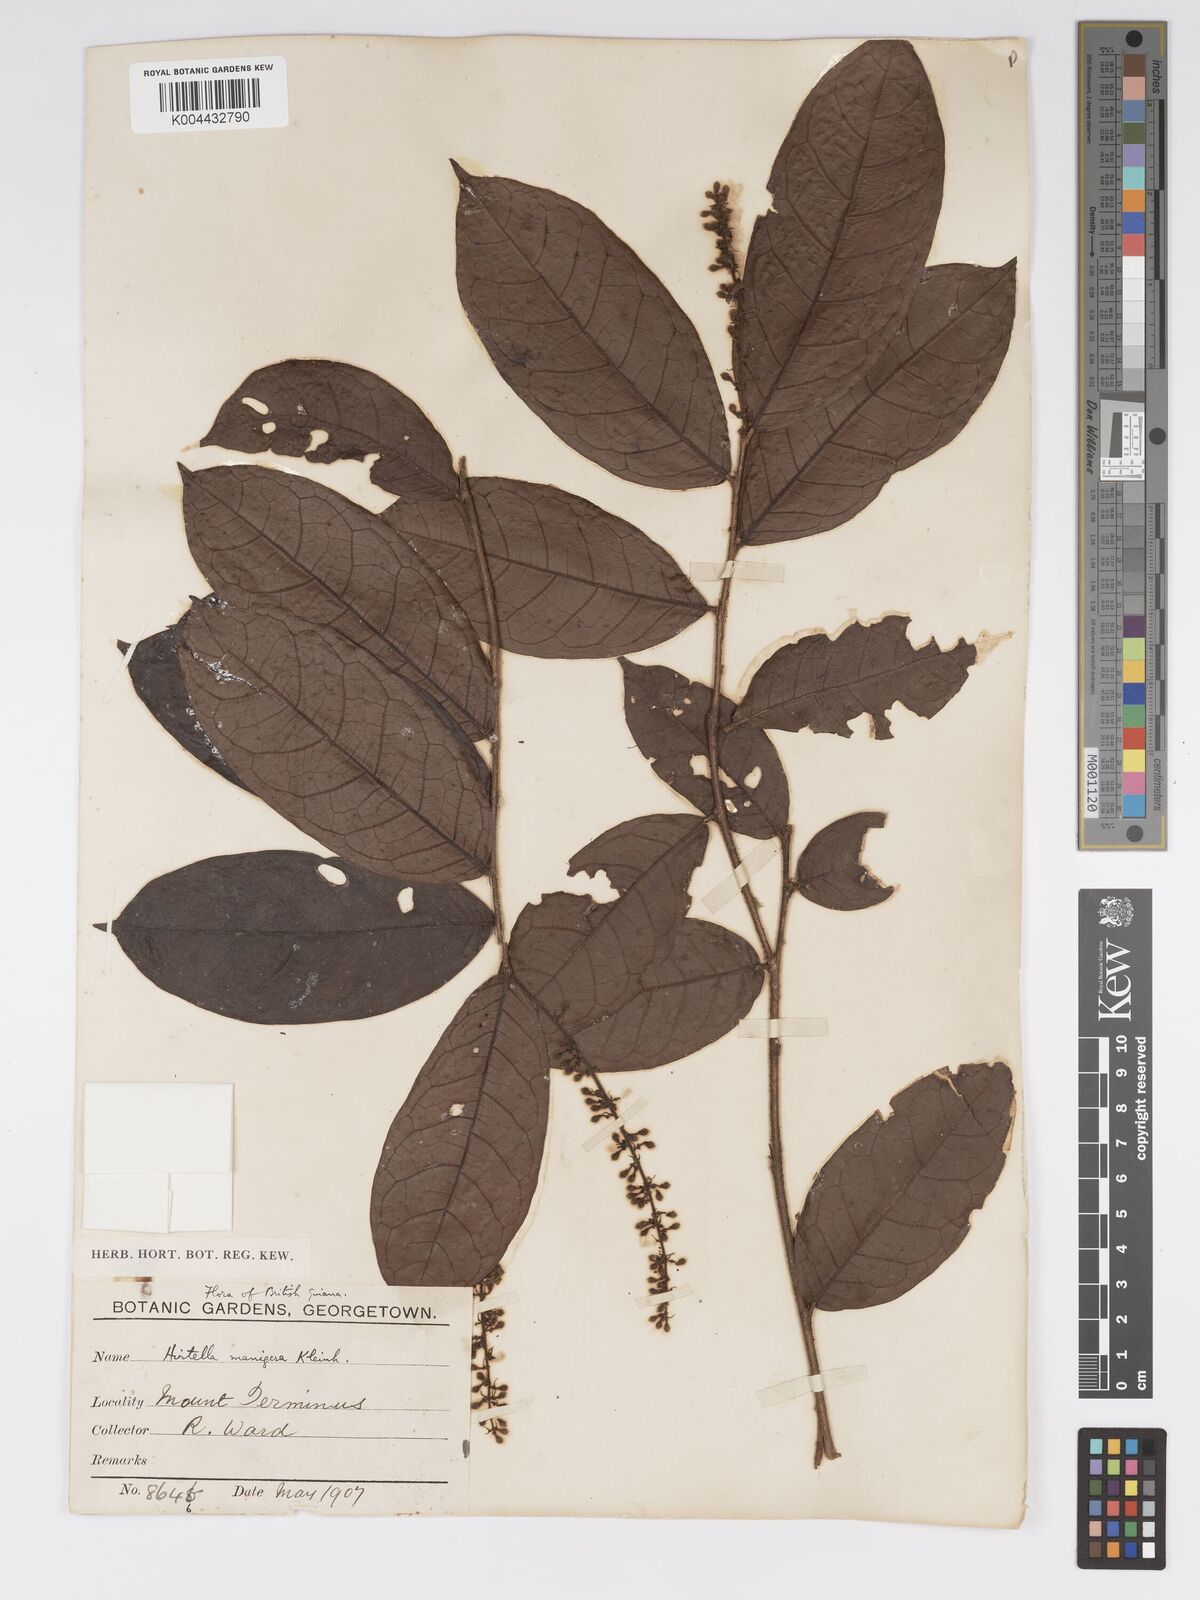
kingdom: Plantae
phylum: Tracheophyta
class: Magnoliopsida
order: Malpighiales
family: Chrysobalanaceae
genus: Hirtella
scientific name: Hirtella silicea
